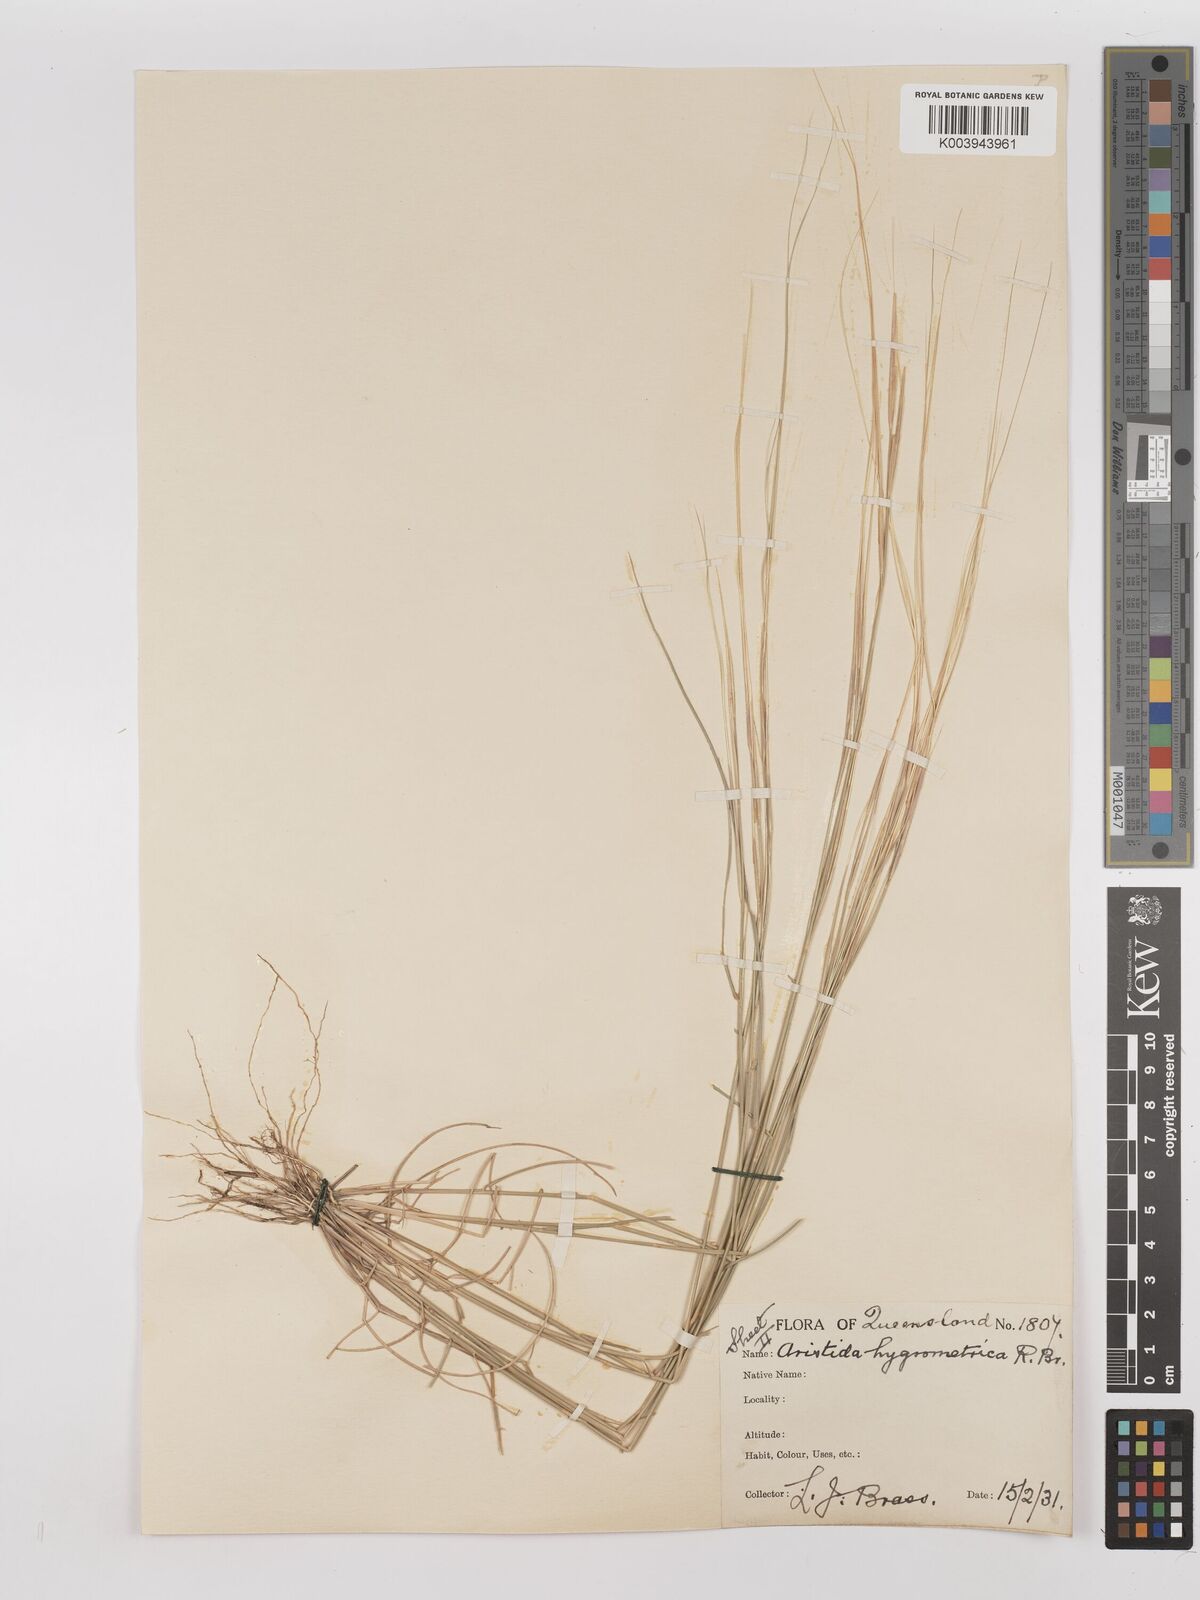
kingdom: Plantae
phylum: Tracheophyta
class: Liliopsida
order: Poales
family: Poaceae
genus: Aristida
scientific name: Aristida hygrometrica
